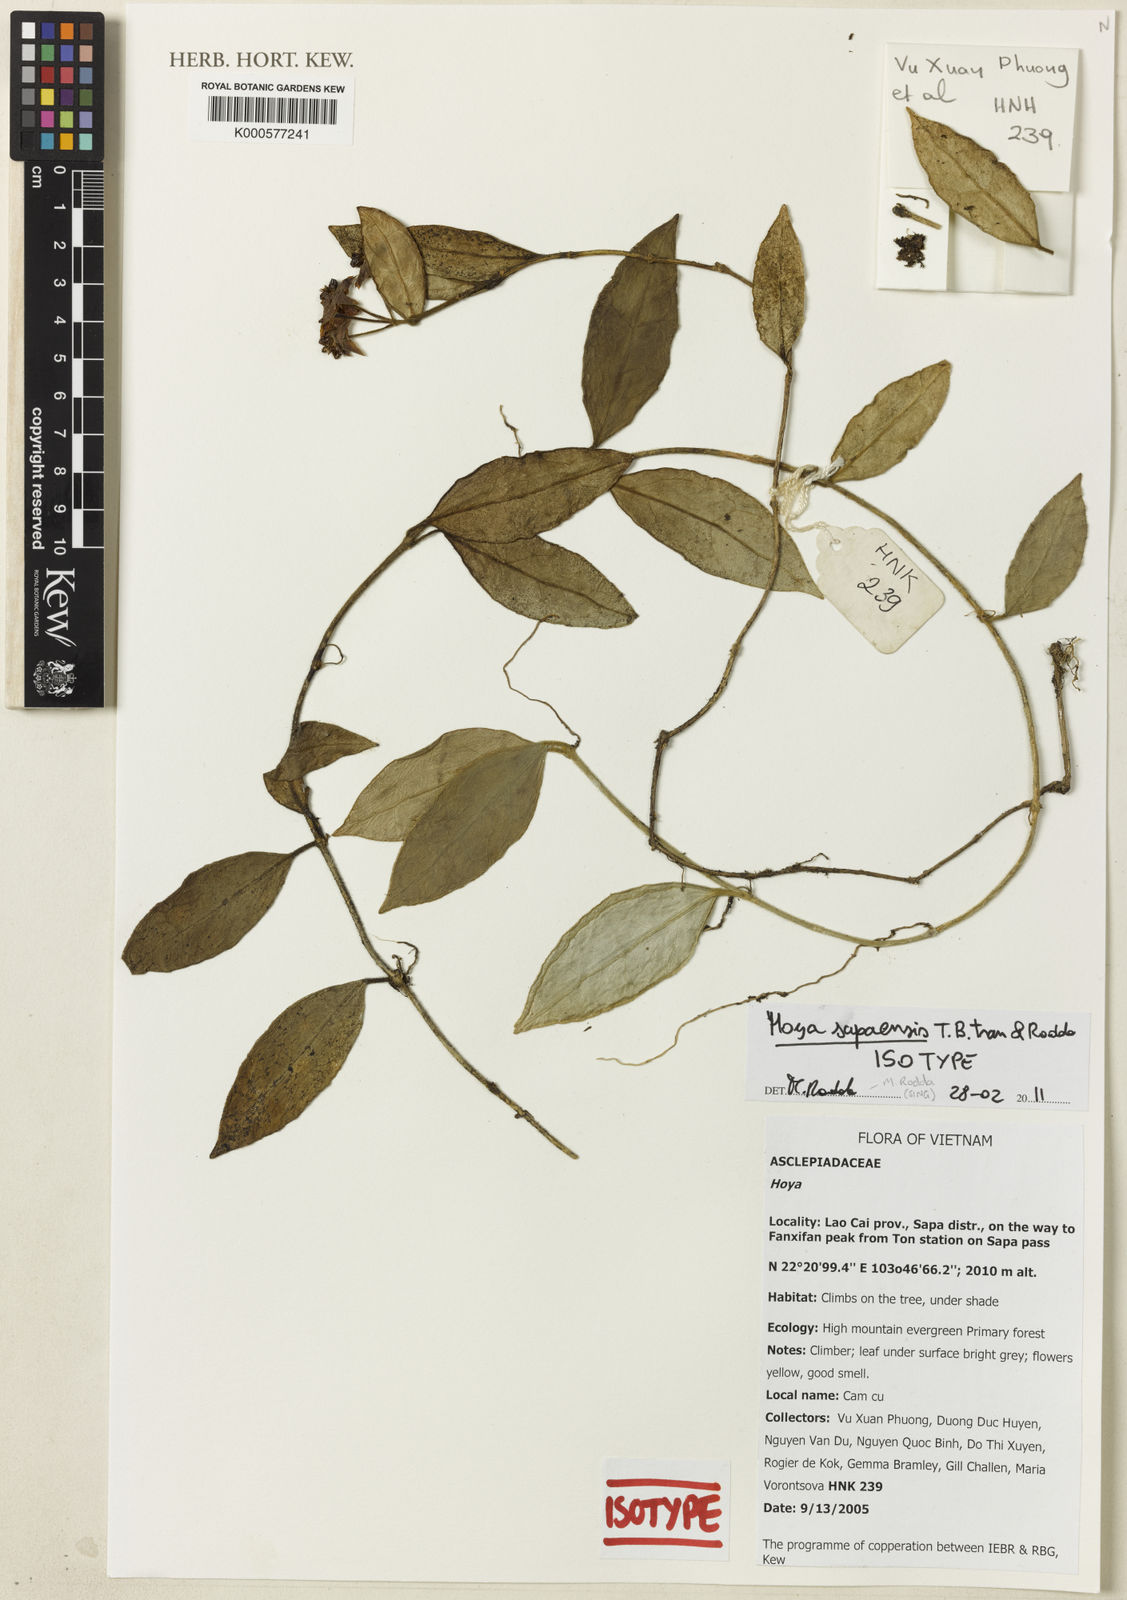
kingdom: Plantae
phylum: Tracheophyta
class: Magnoliopsida
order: Gentianales
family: Apocynaceae
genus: Hoya
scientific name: Hoya sapaensis
